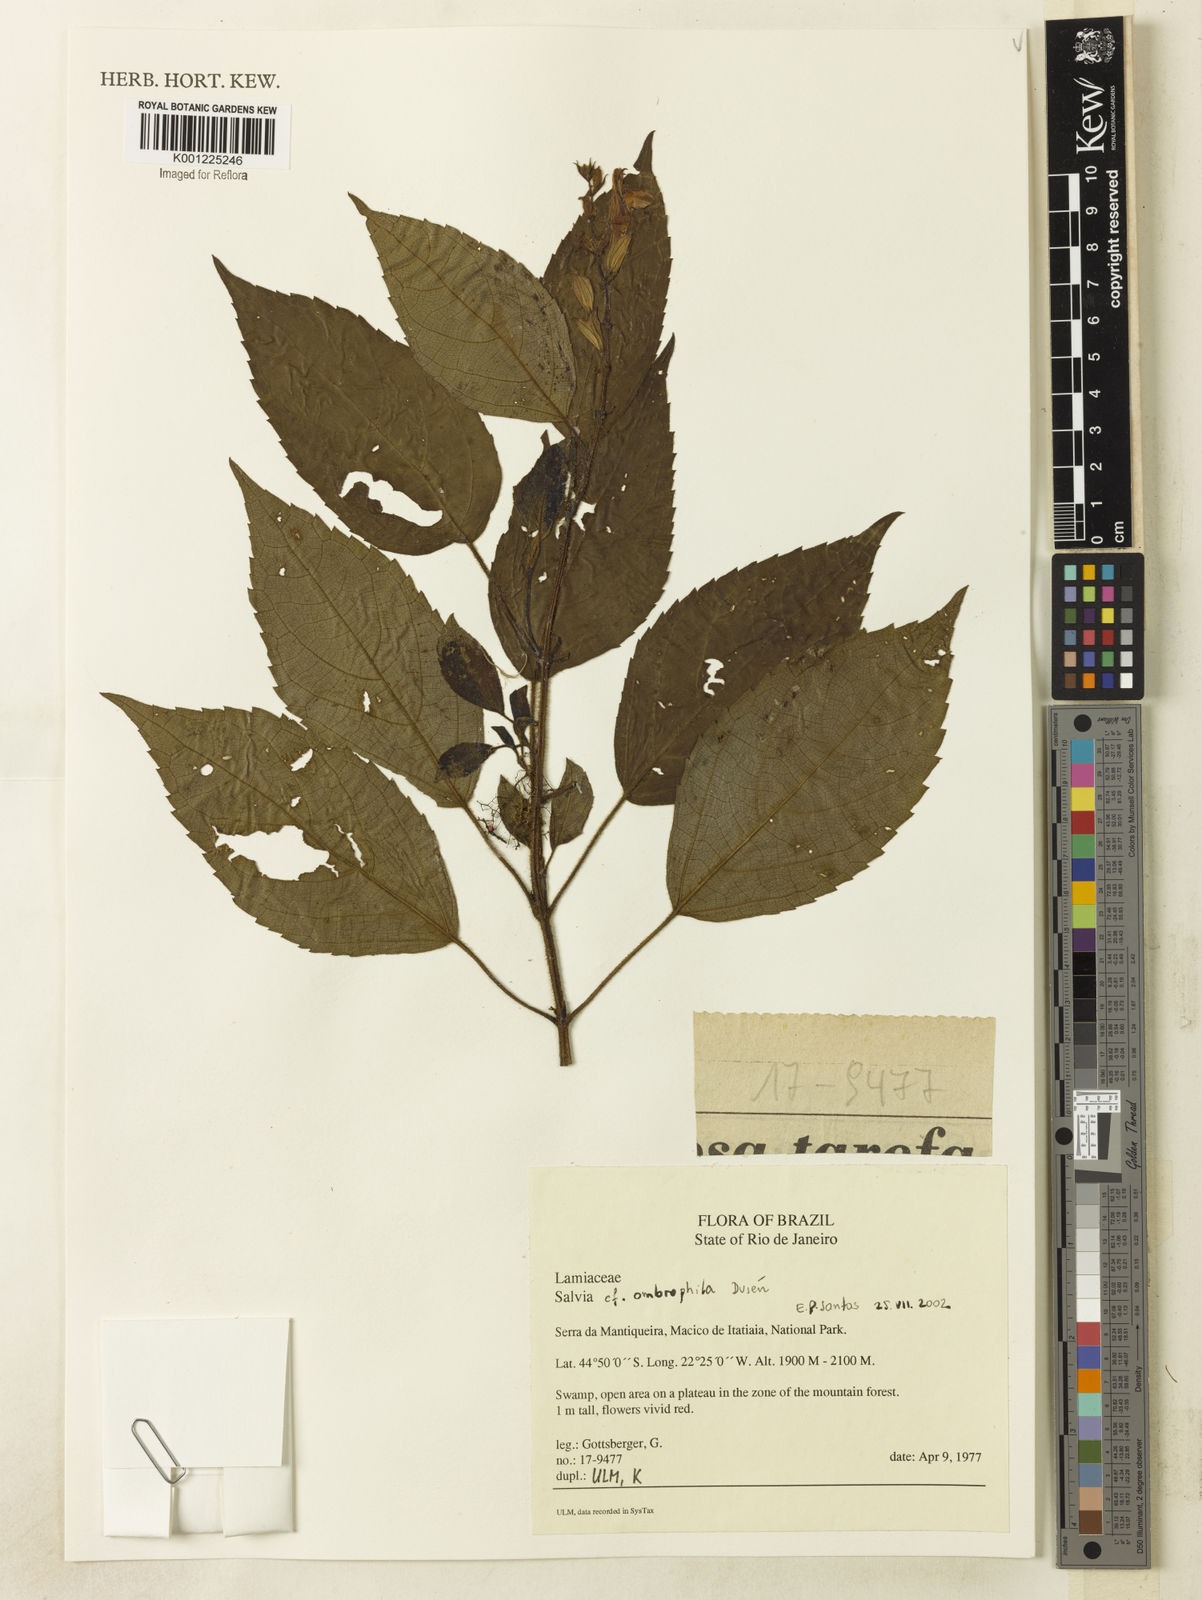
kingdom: Plantae
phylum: Tracheophyta
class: Magnoliopsida
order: Lamiales
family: Lamiaceae
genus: Salvia
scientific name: Salvia
